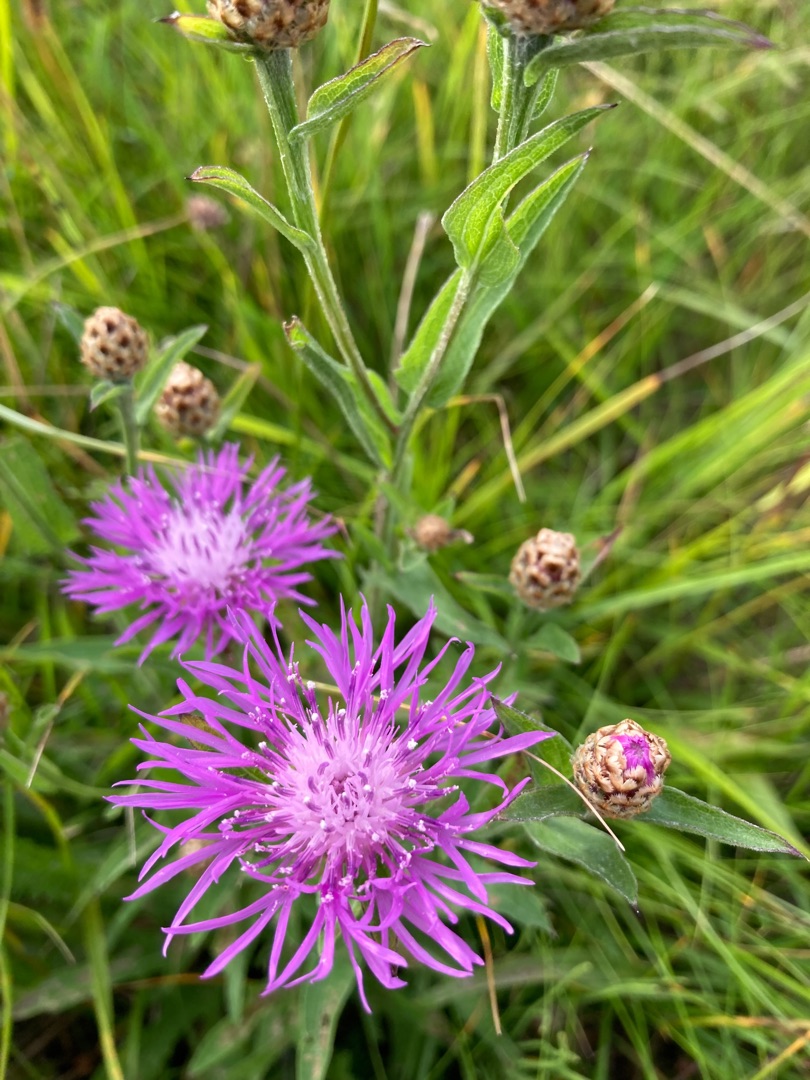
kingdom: Plantae
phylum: Tracheophyta
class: Magnoliopsida
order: Asterales
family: Asteraceae
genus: Centaurea
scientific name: Centaurea jacea
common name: Almindelig knopurt
